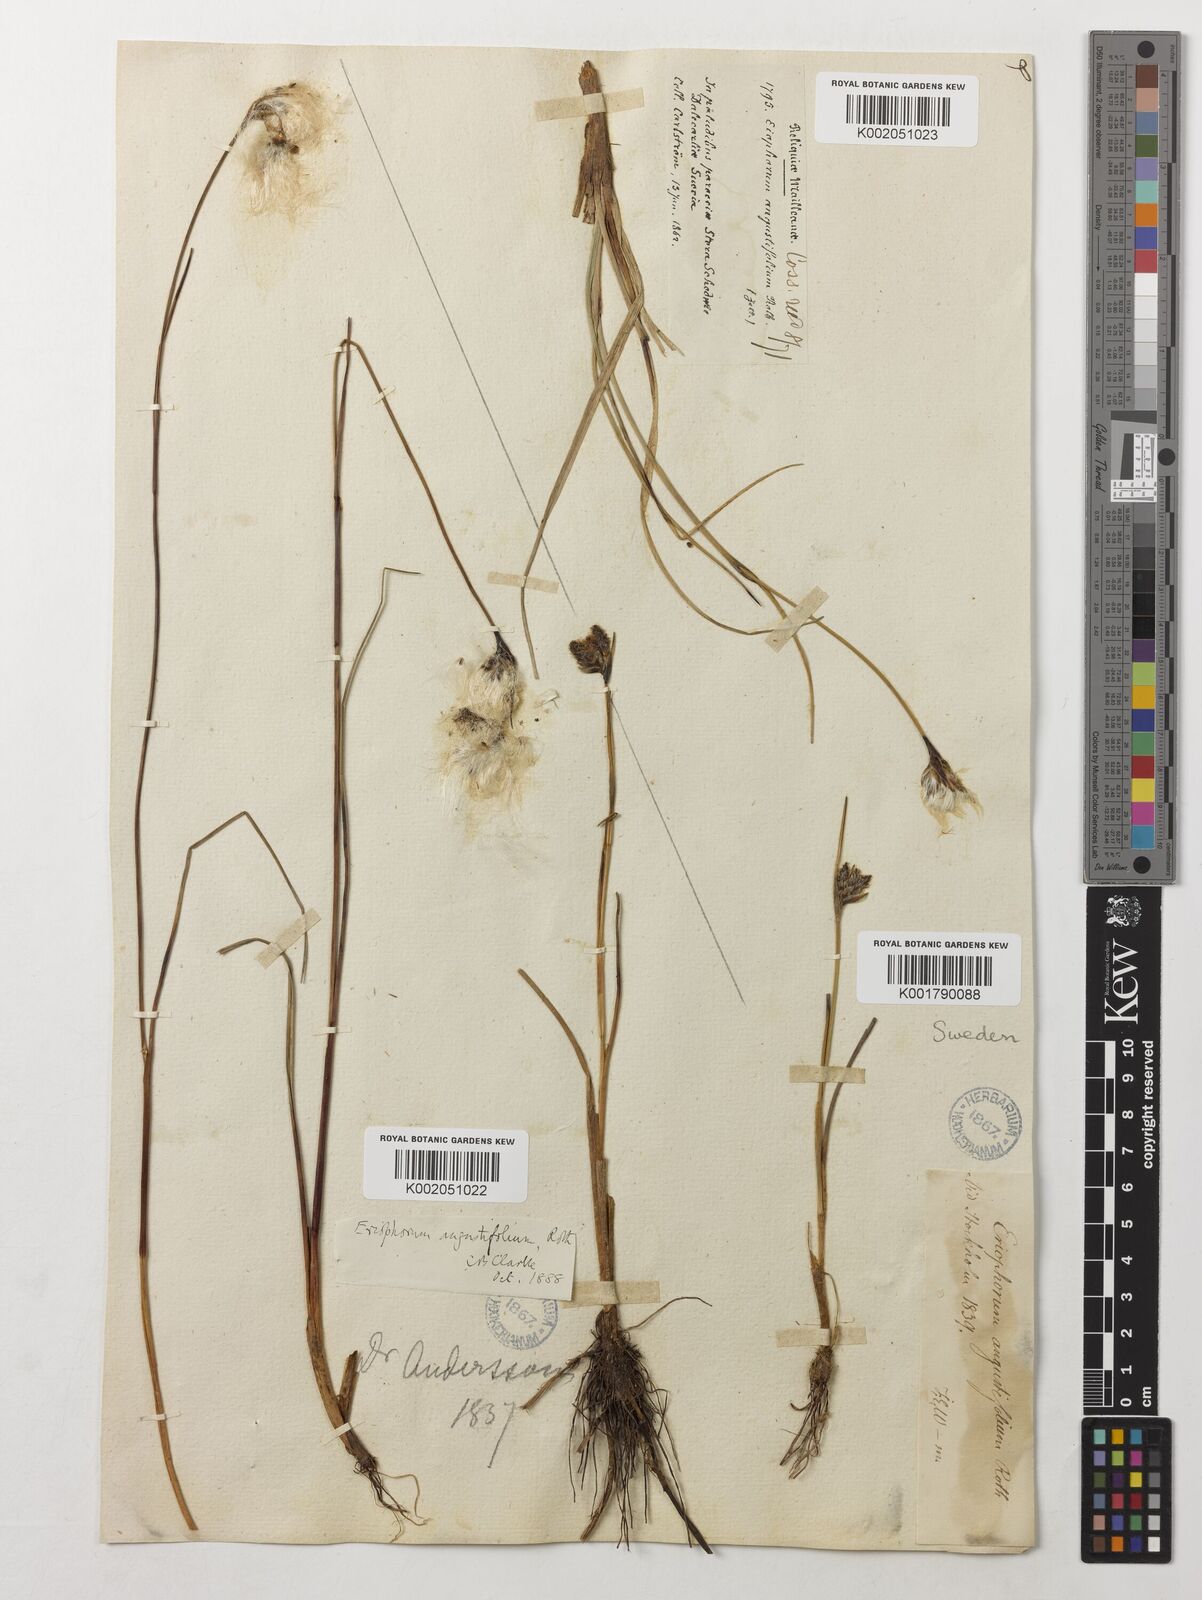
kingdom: Plantae
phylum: Tracheophyta
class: Liliopsida
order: Poales
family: Cyperaceae
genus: Eriophorum
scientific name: Eriophorum angustifolium
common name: Common cottongrass
